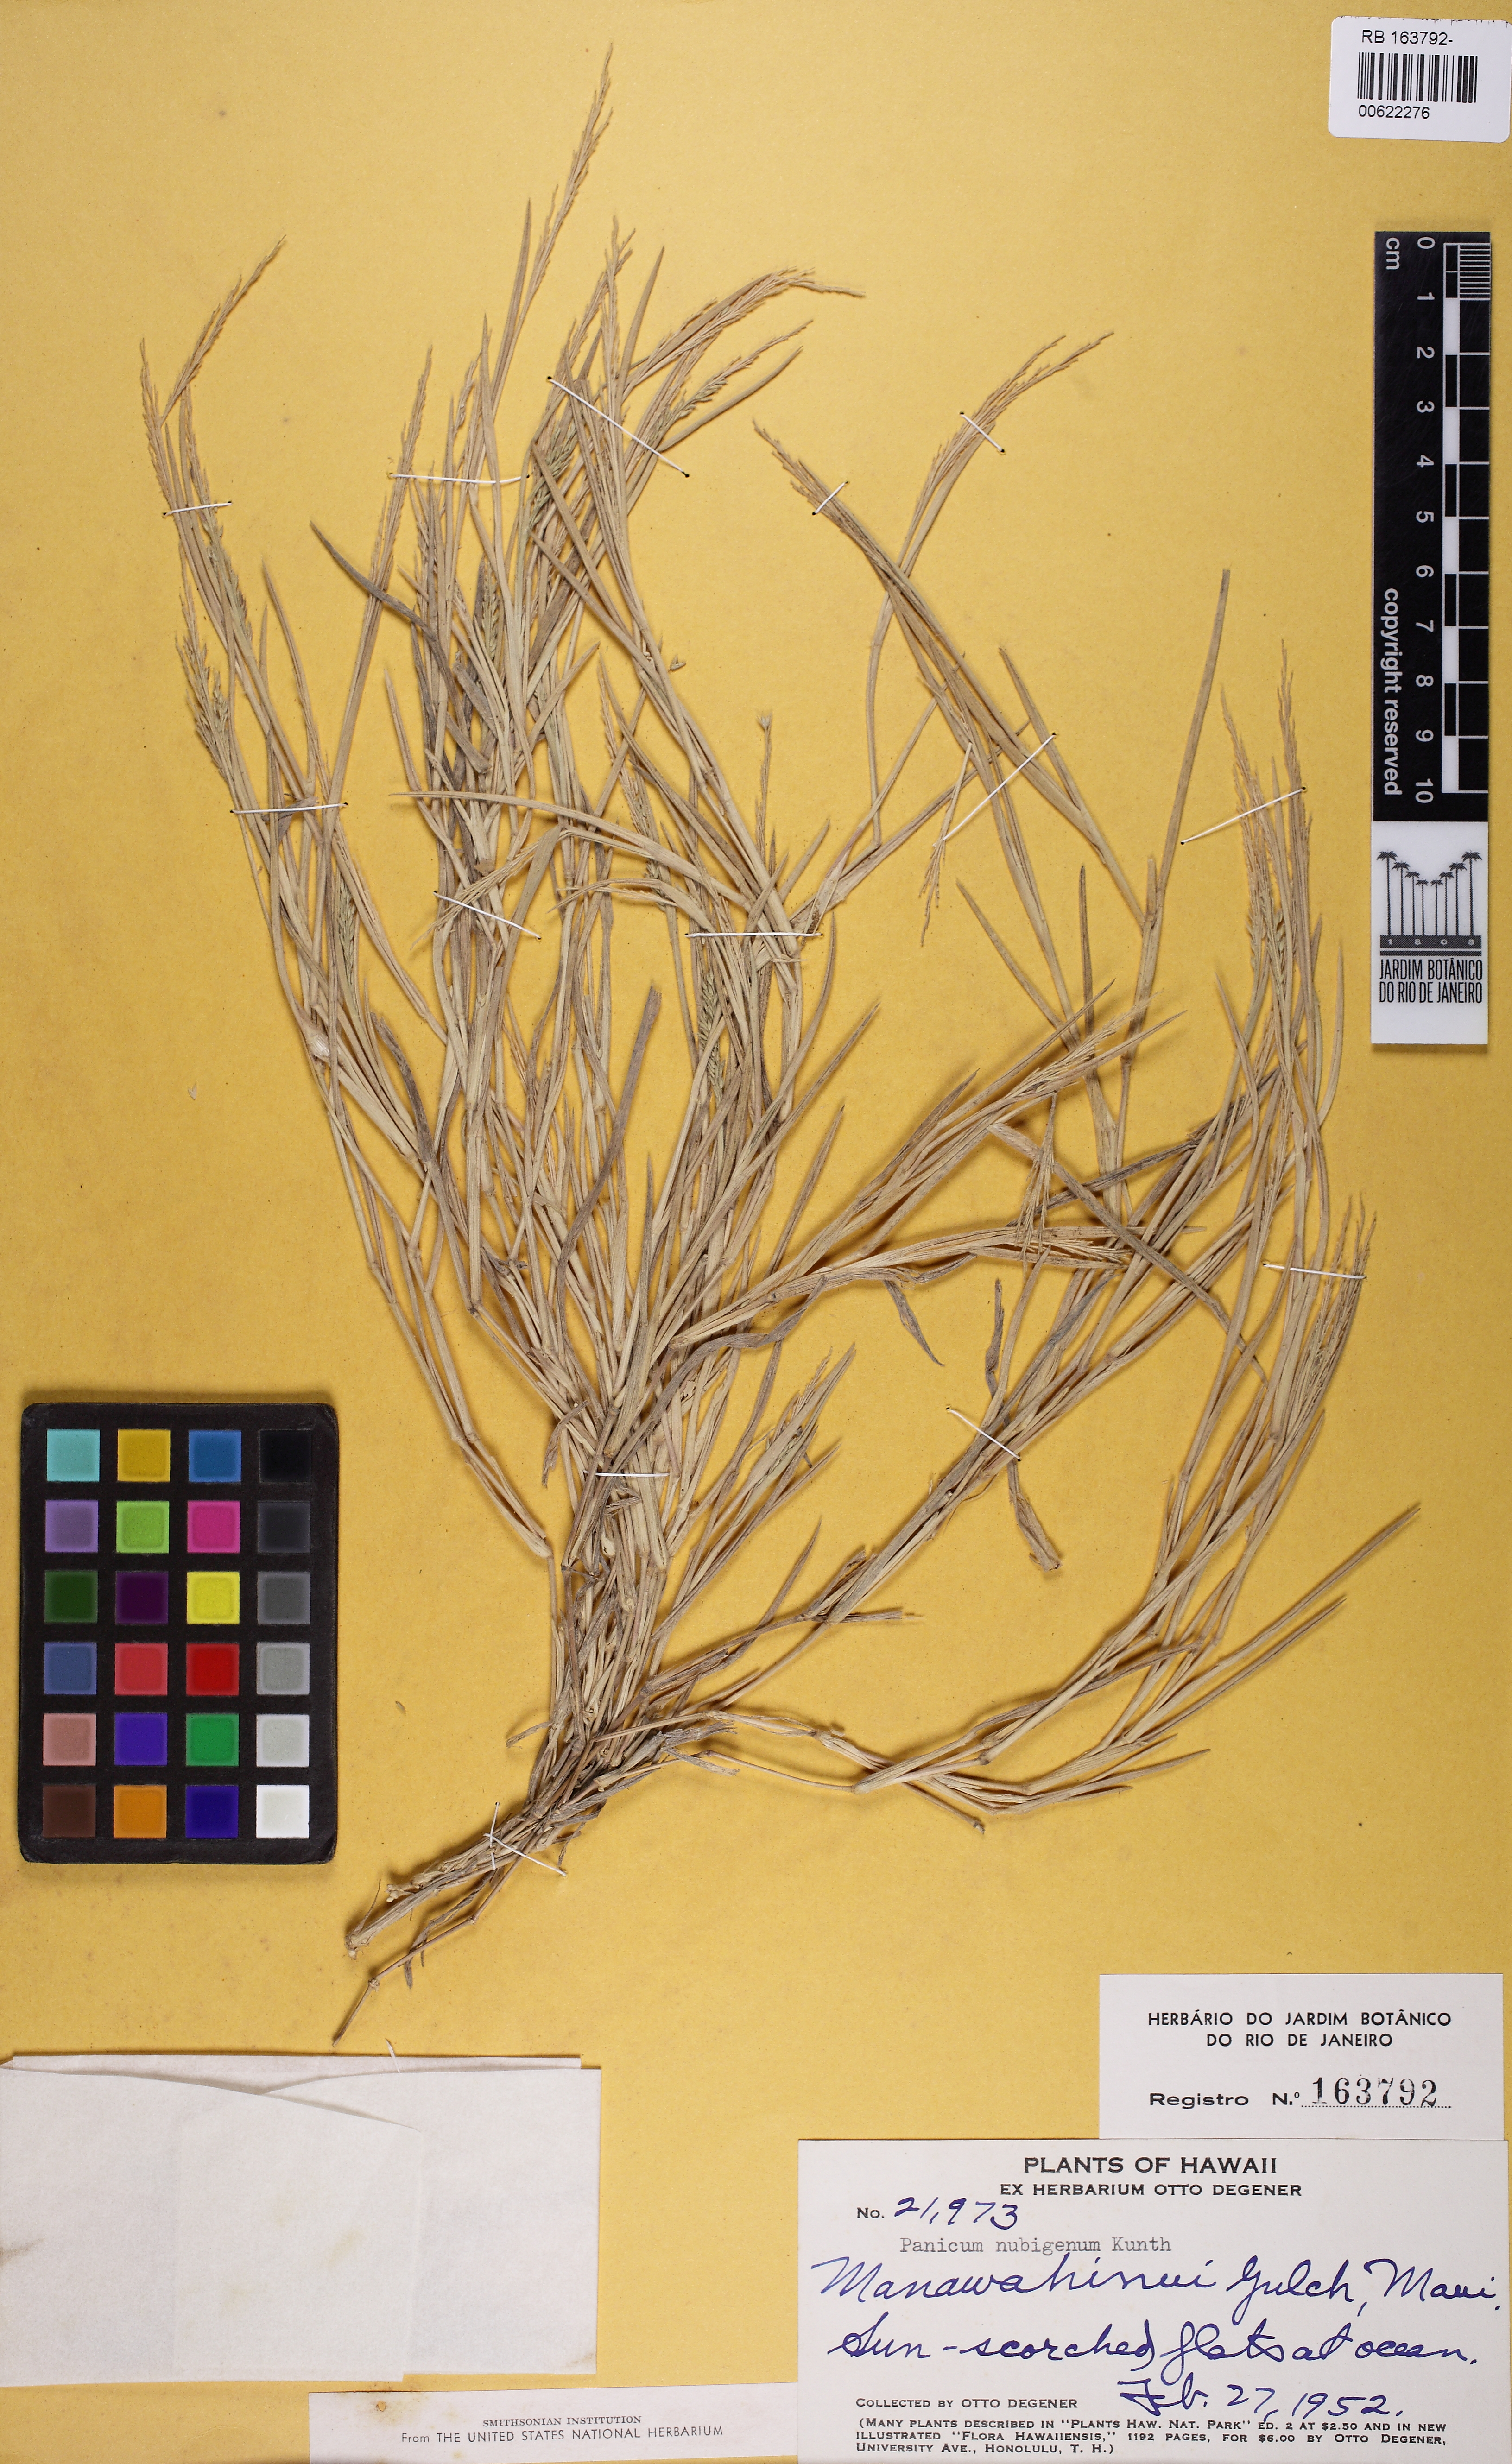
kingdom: Plantae
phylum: Tracheophyta
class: Liliopsida
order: Poales
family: Poaceae
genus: Panicum
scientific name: Panicum torridum
